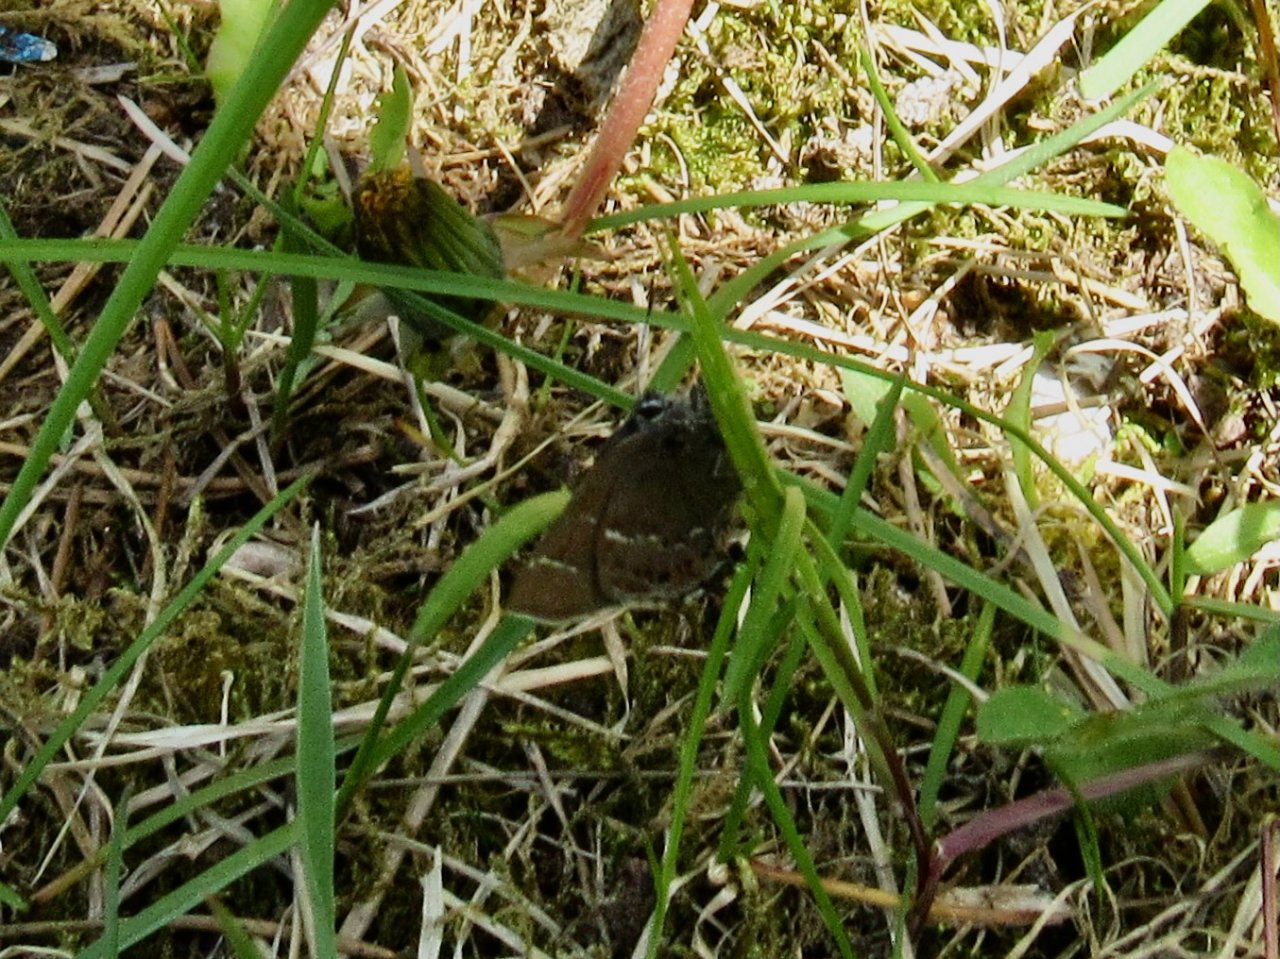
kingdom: Animalia
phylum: Arthropoda
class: Insecta
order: Lepidoptera
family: Lycaenidae
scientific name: Lycaenidae
